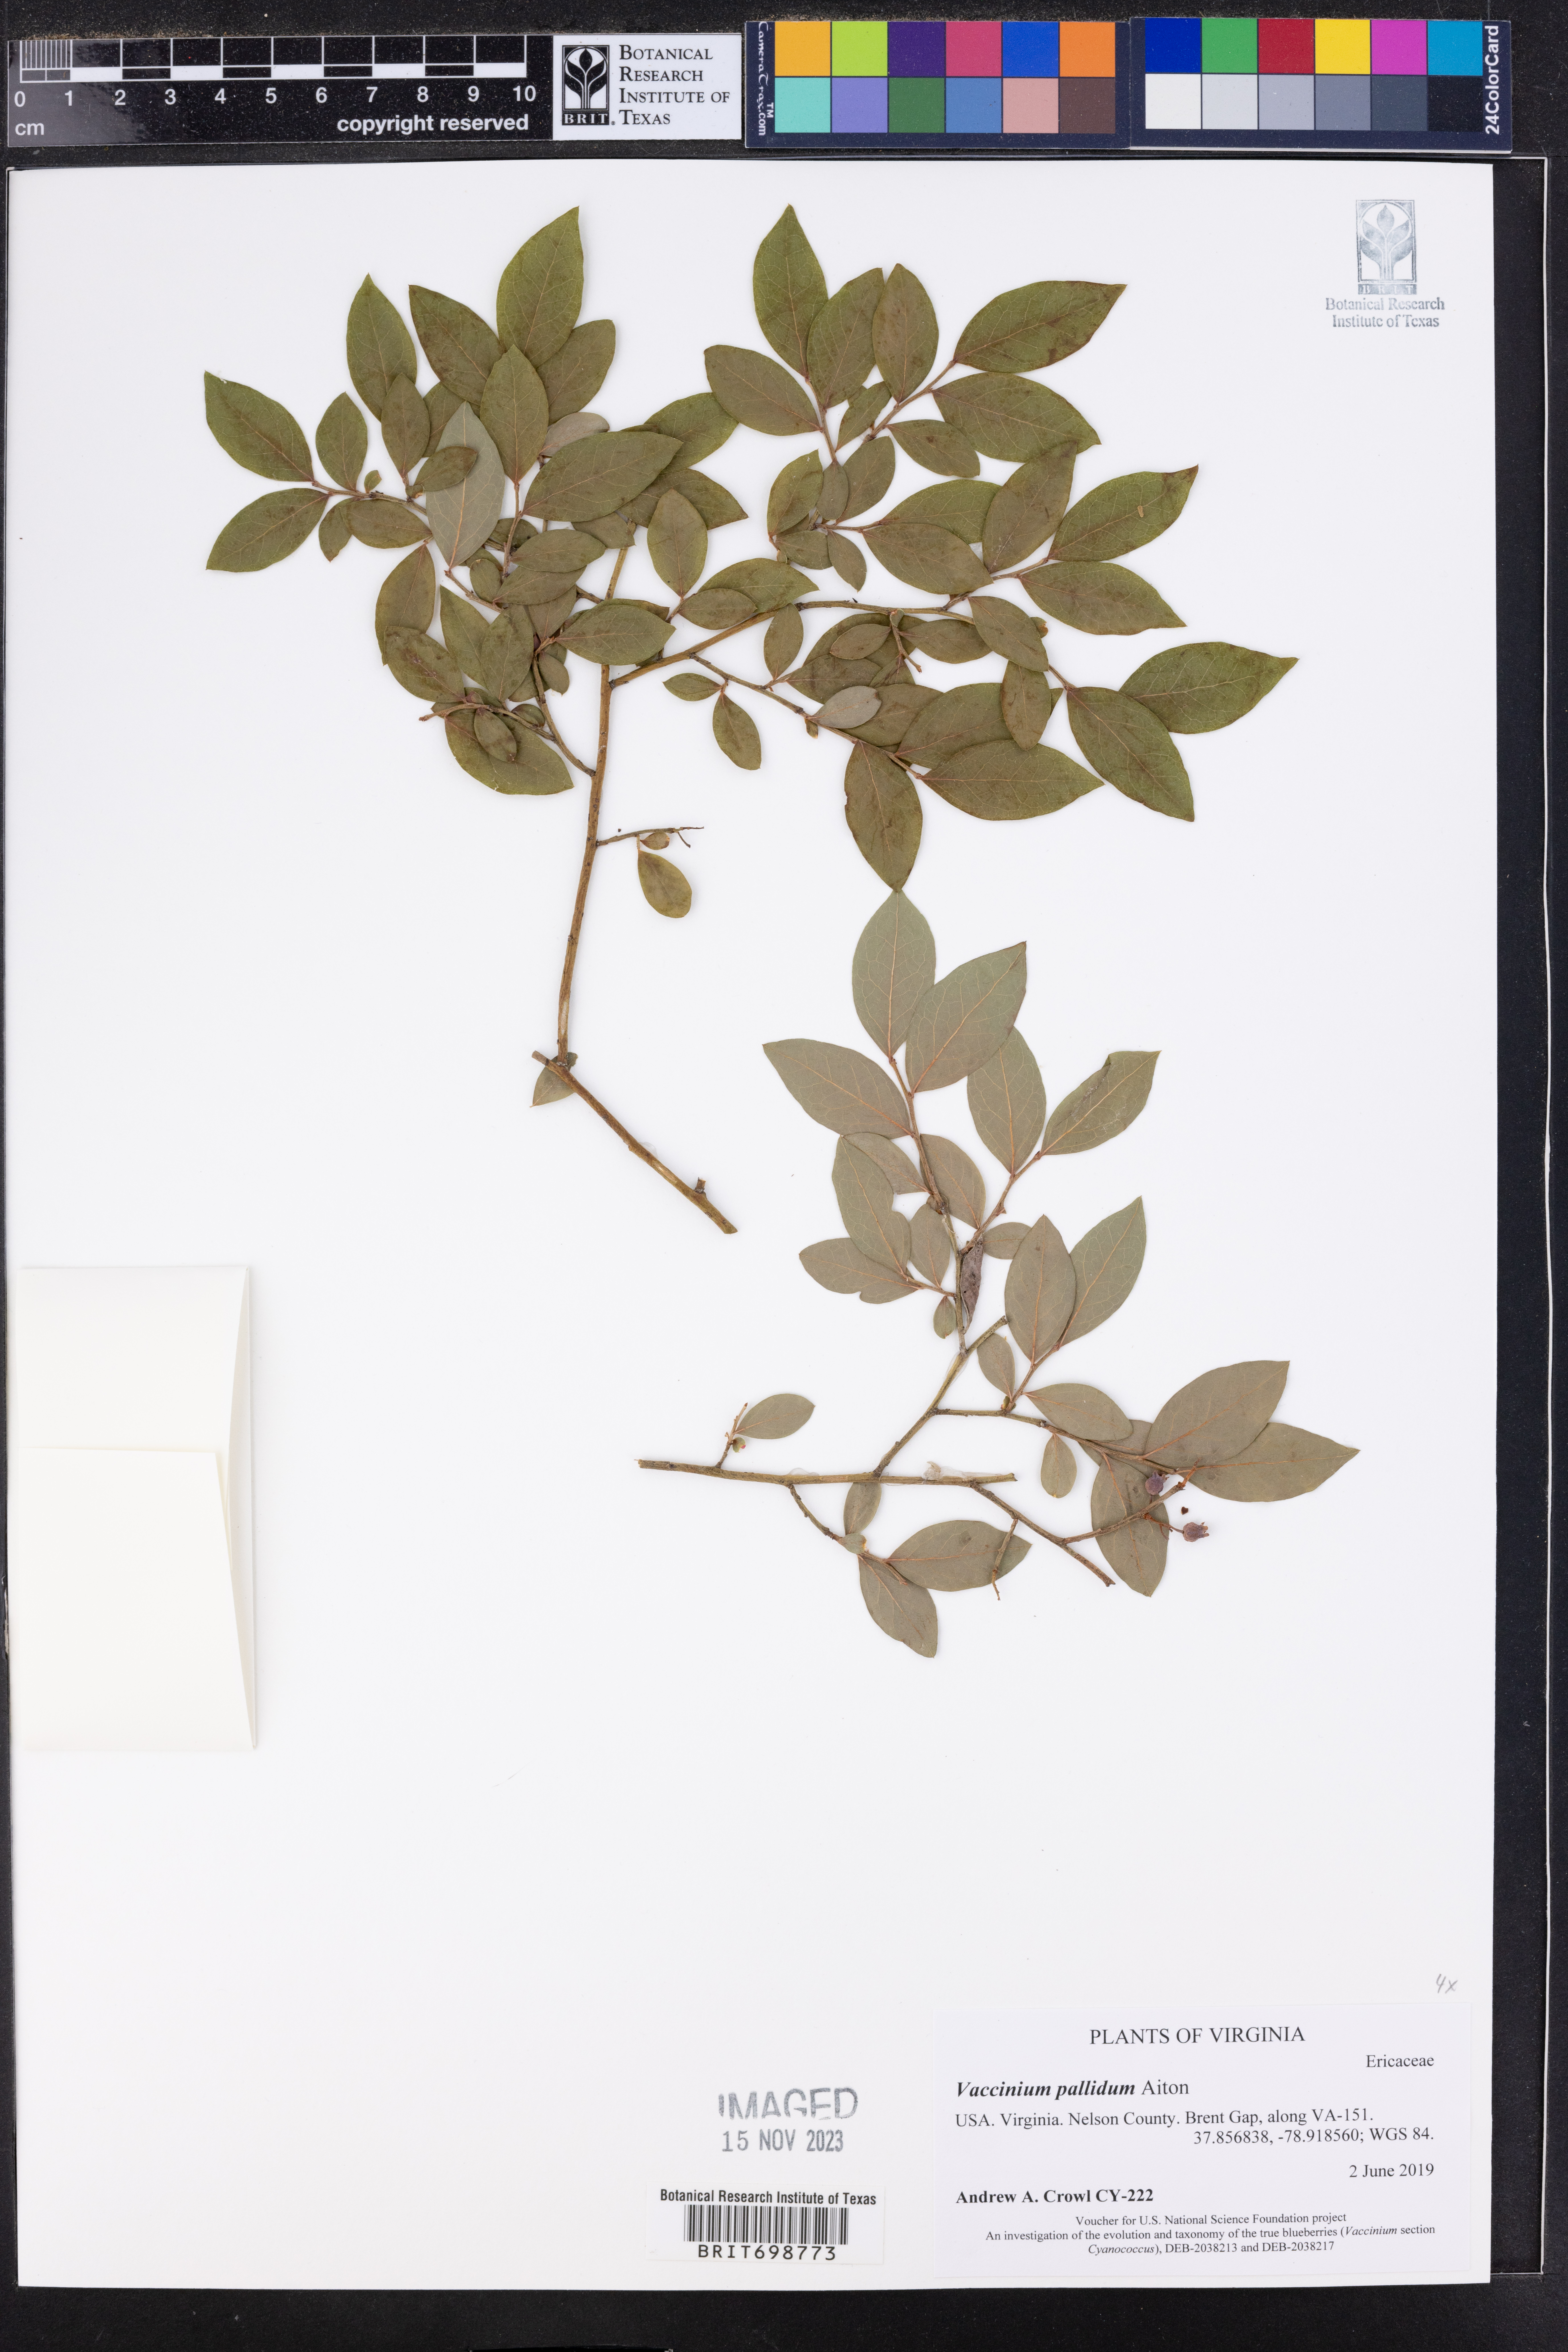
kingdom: Plantae
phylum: Tracheophyta
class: Magnoliopsida
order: Ericales
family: Ericaceae
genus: Vaccinium
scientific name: Vaccinium pallidum
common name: Blue ridge blueberry
